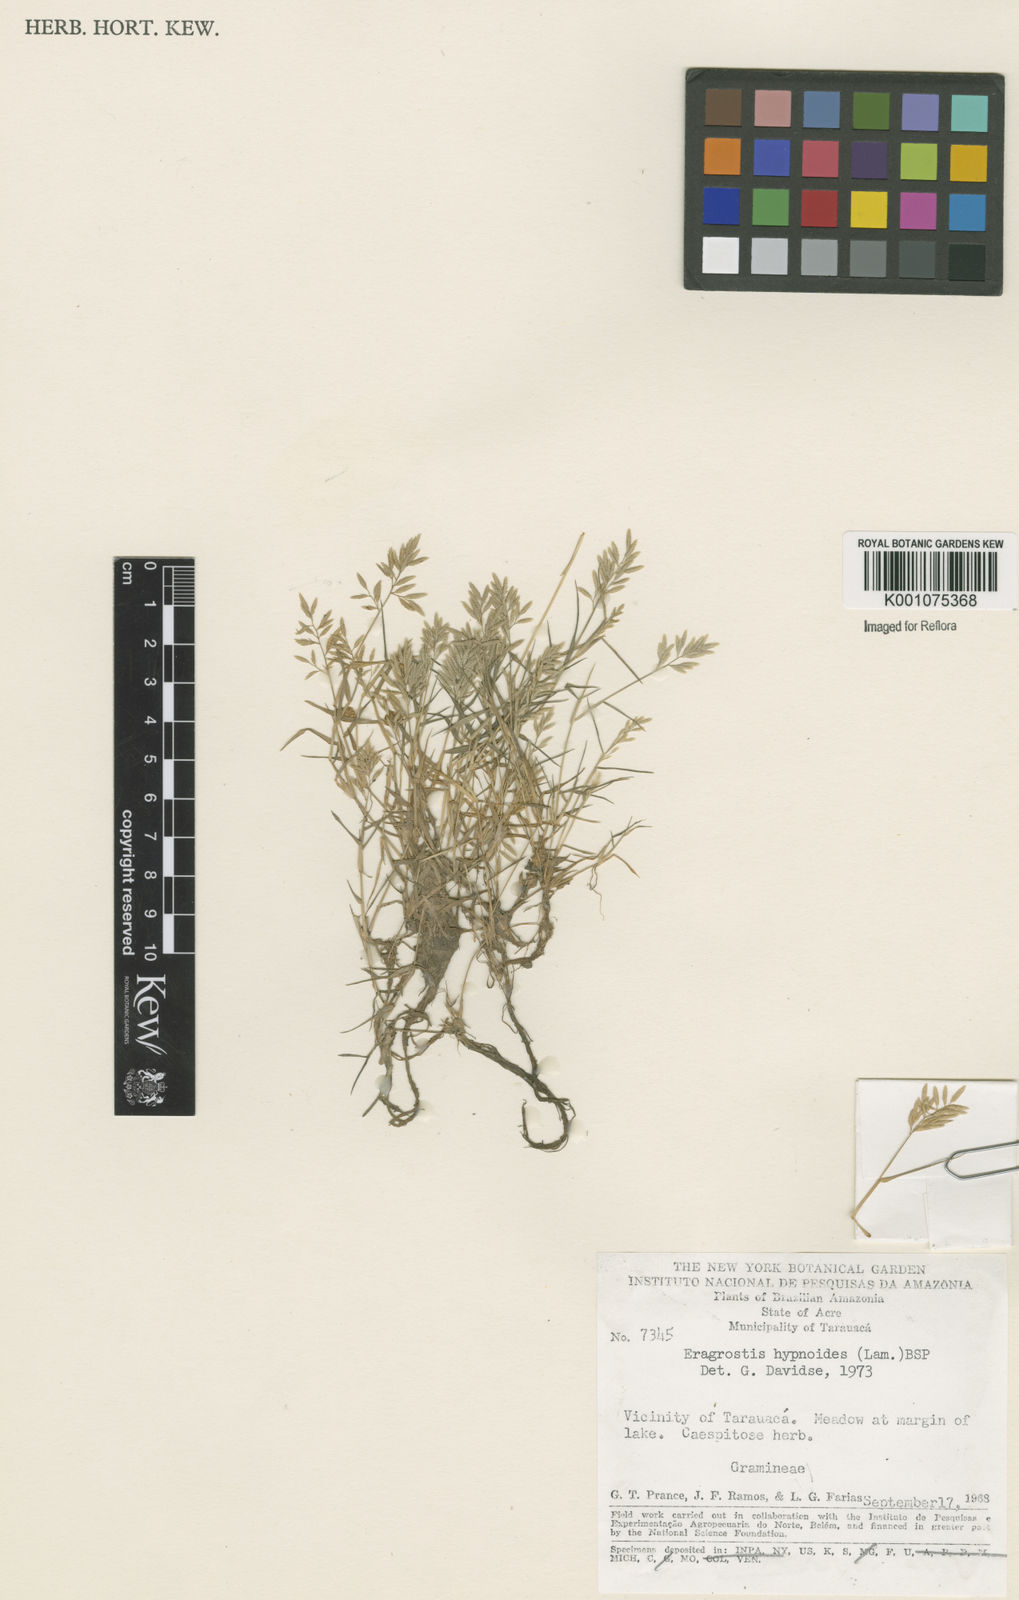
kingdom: Plantae
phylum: Tracheophyta
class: Liliopsida
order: Poales
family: Poaceae
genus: Eragrostis
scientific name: Eragrostis
